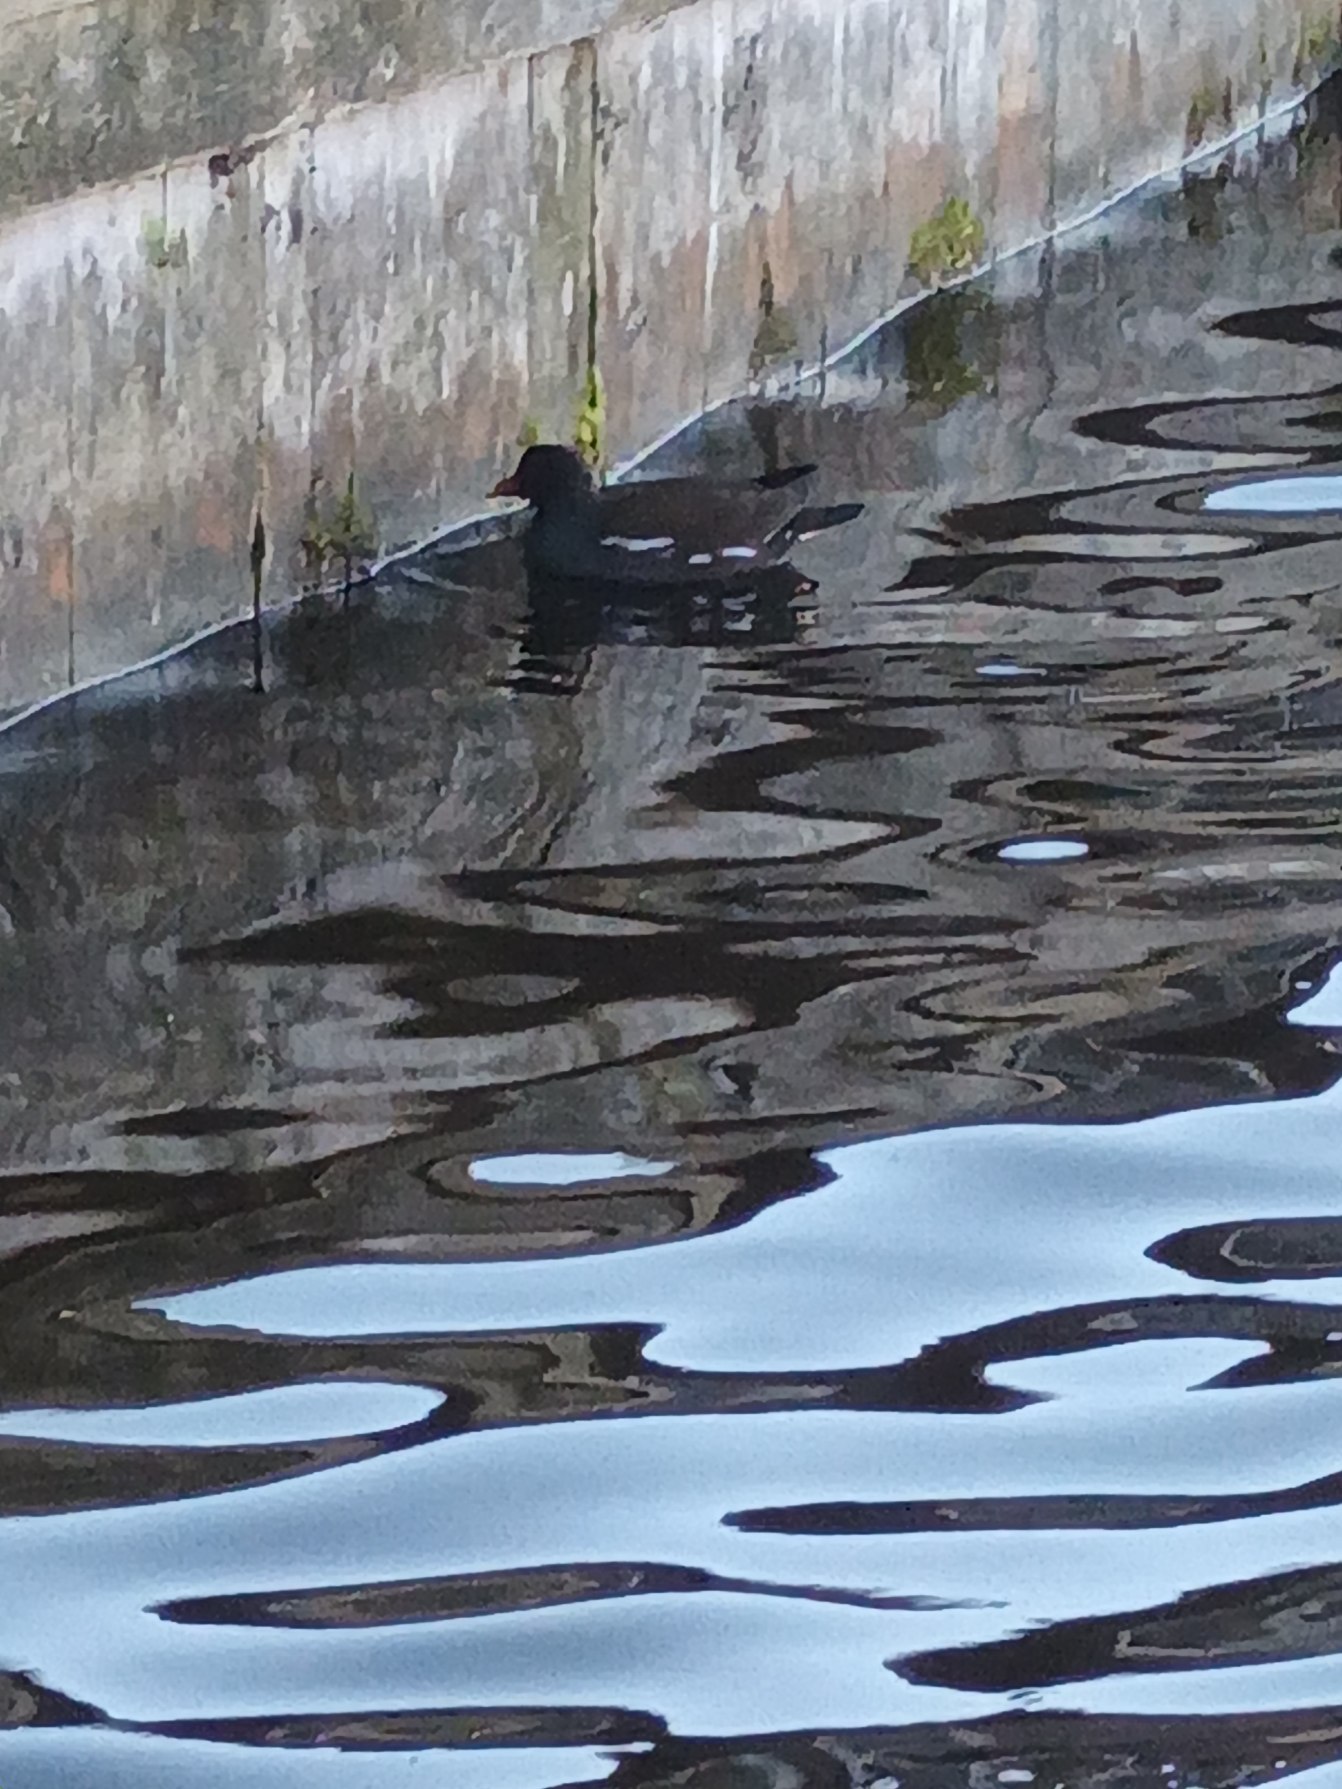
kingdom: Animalia
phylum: Chordata
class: Aves
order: Gruiformes
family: Rallidae
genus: Gallinula
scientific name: Gallinula chloropus
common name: Grønbenet rørhøne
